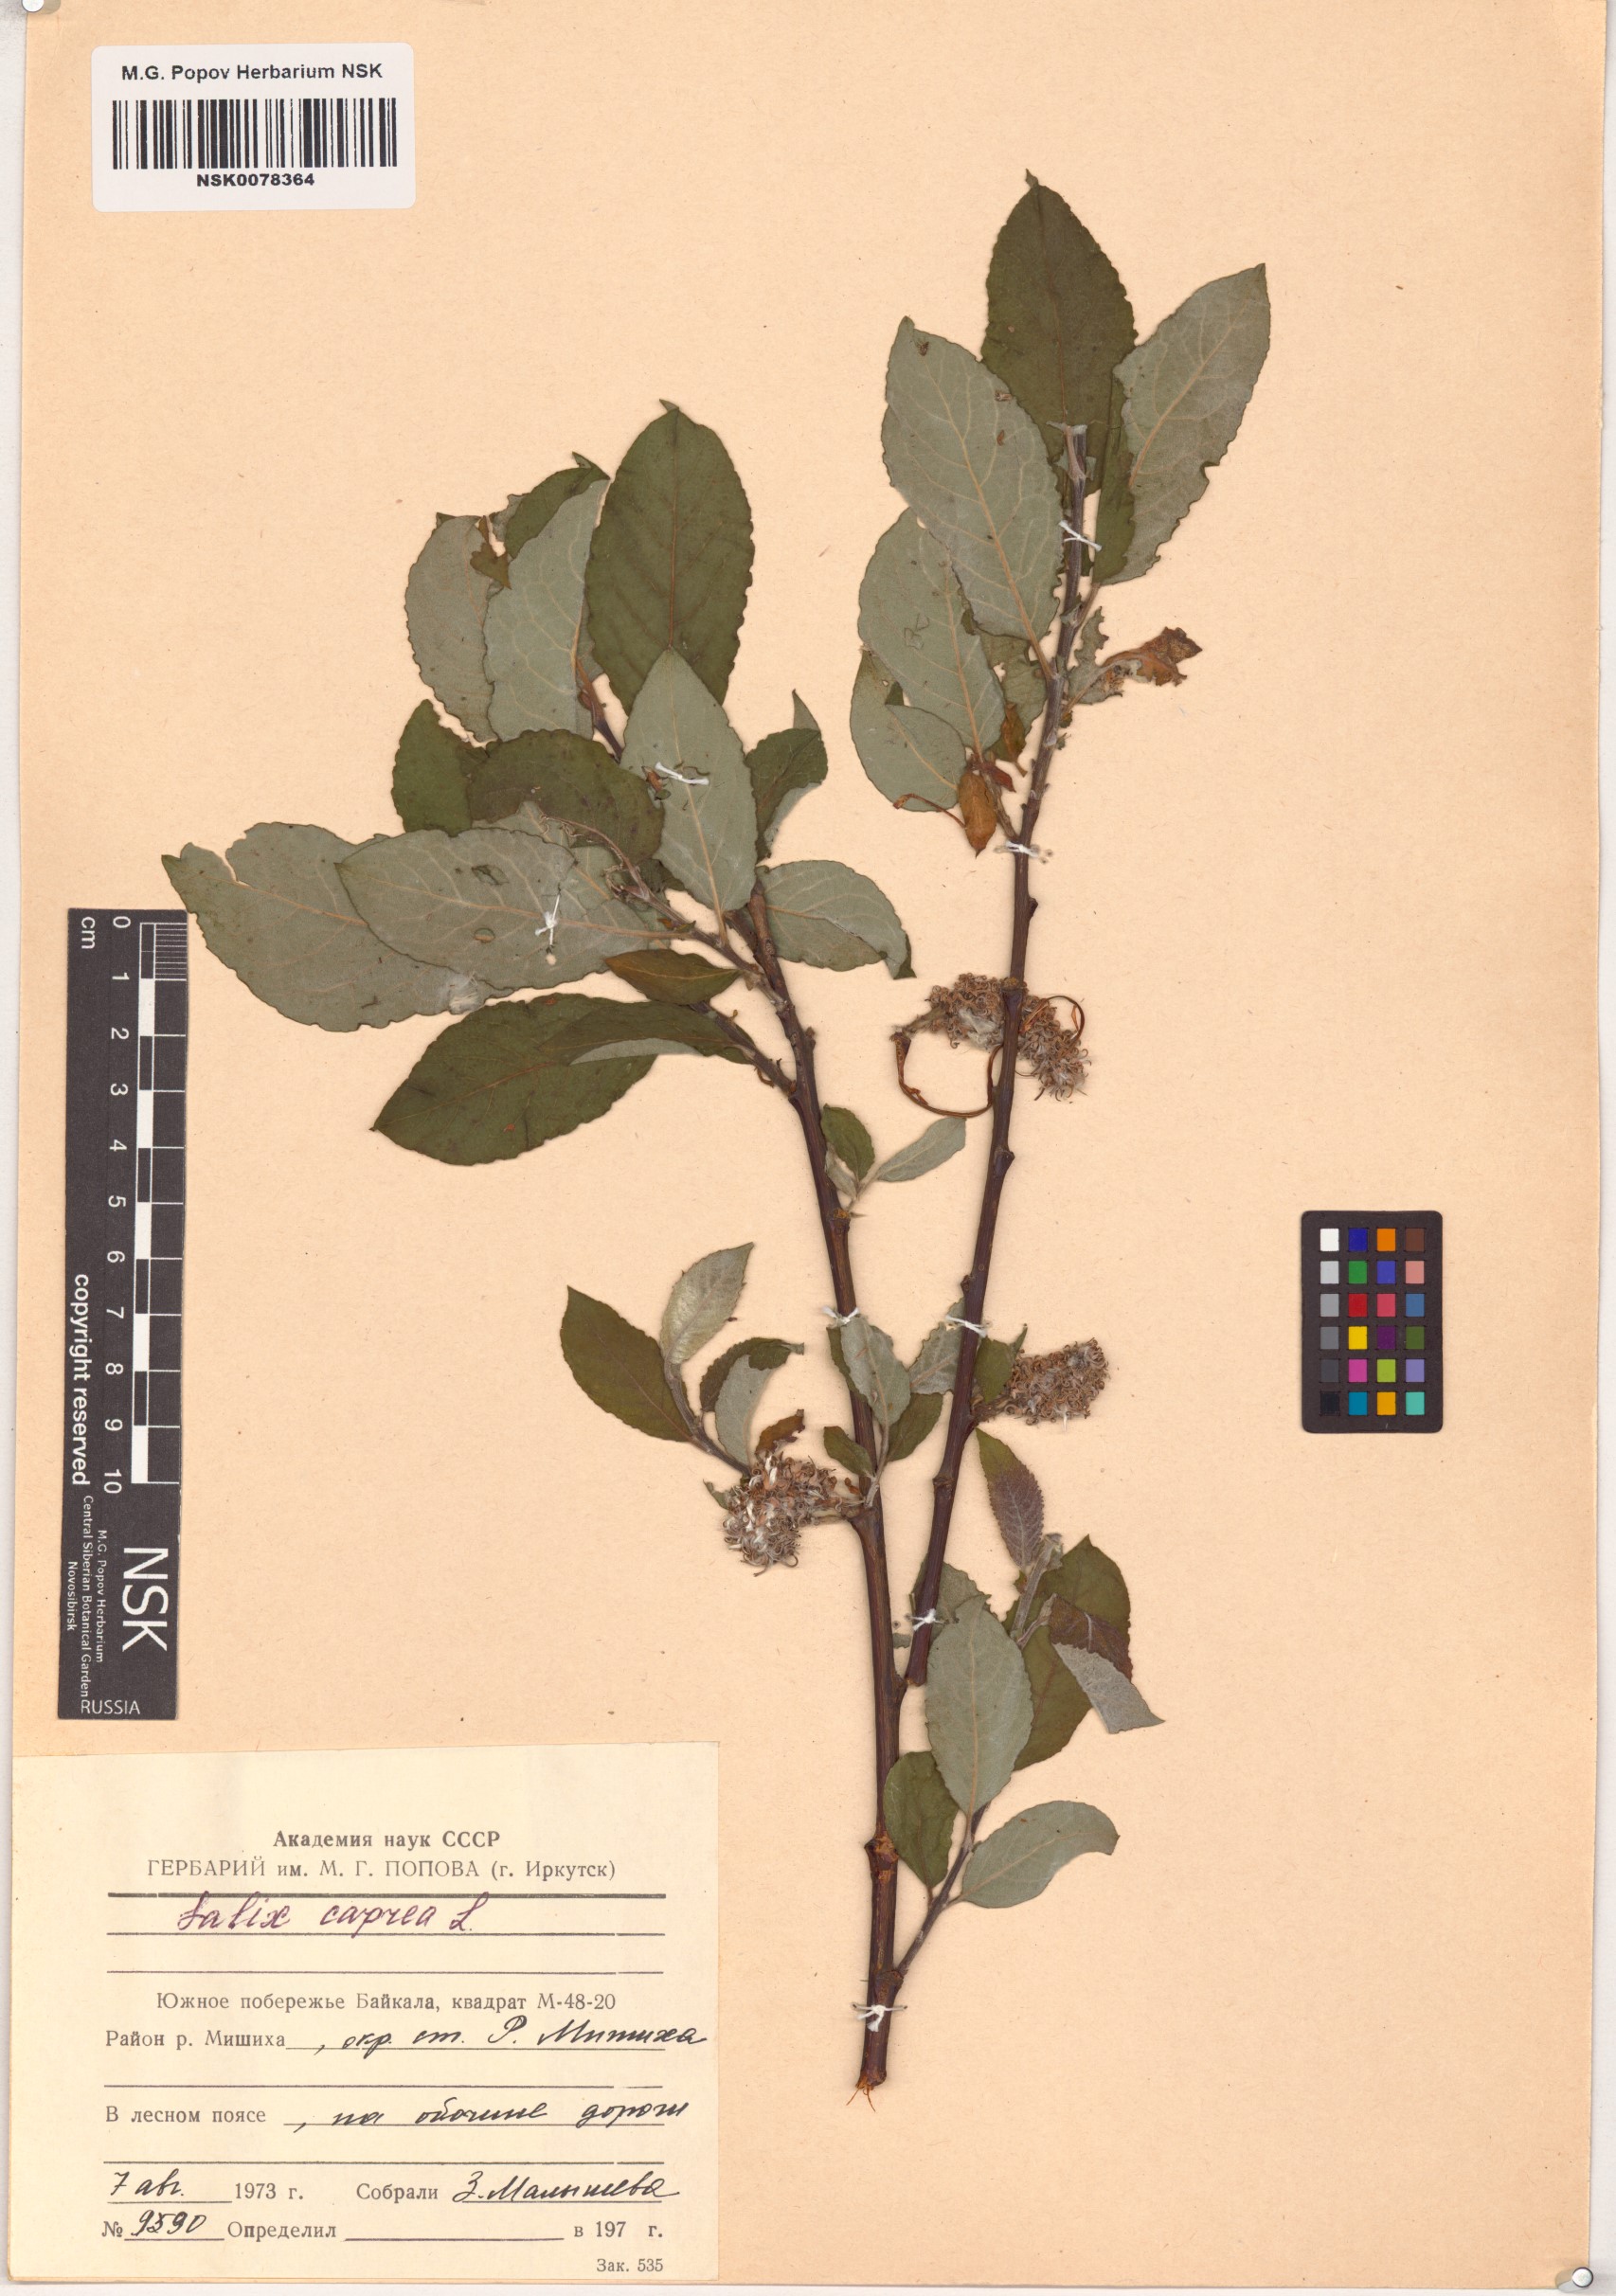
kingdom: Plantae
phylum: Tracheophyta
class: Magnoliopsida
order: Malpighiales
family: Salicaceae
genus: Salix
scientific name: Salix caprea
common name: Goat willow
